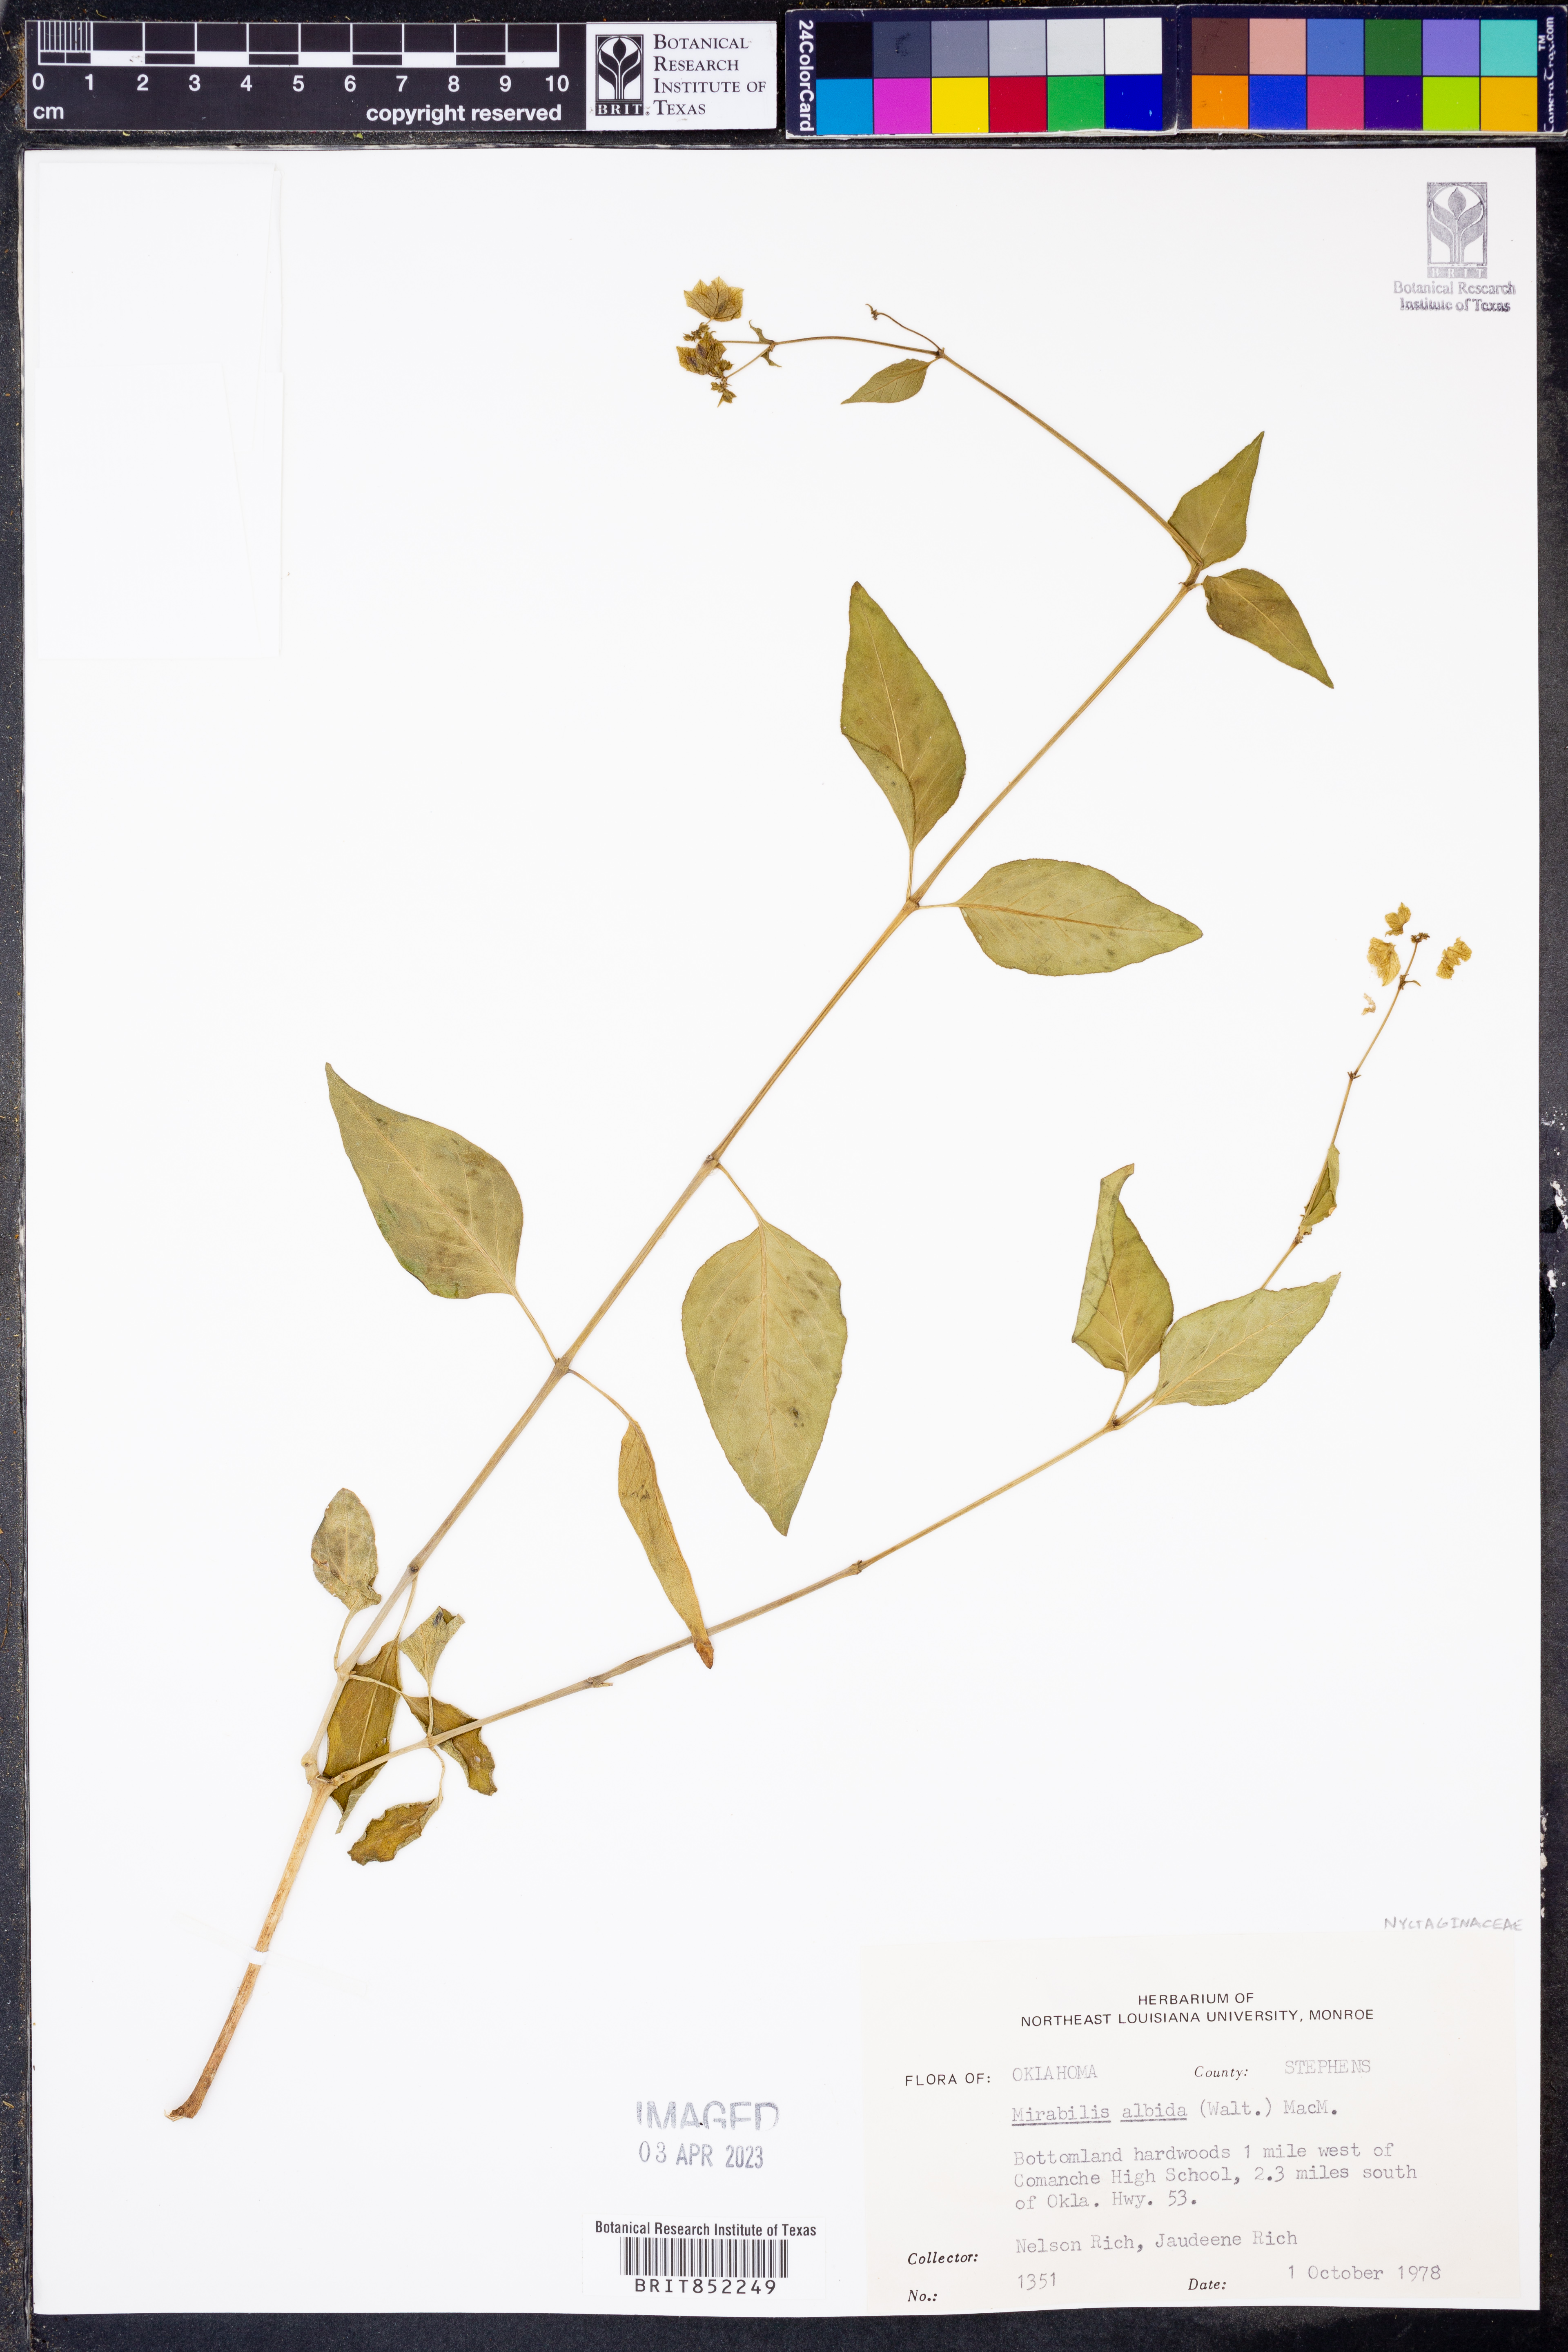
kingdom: Plantae
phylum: Tracheophyta
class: Magnoliopsida
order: Caryophyllales
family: Nyctaginaceae
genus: Mirabilis
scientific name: Mirabilis albida
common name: Hairy four-o'clock
